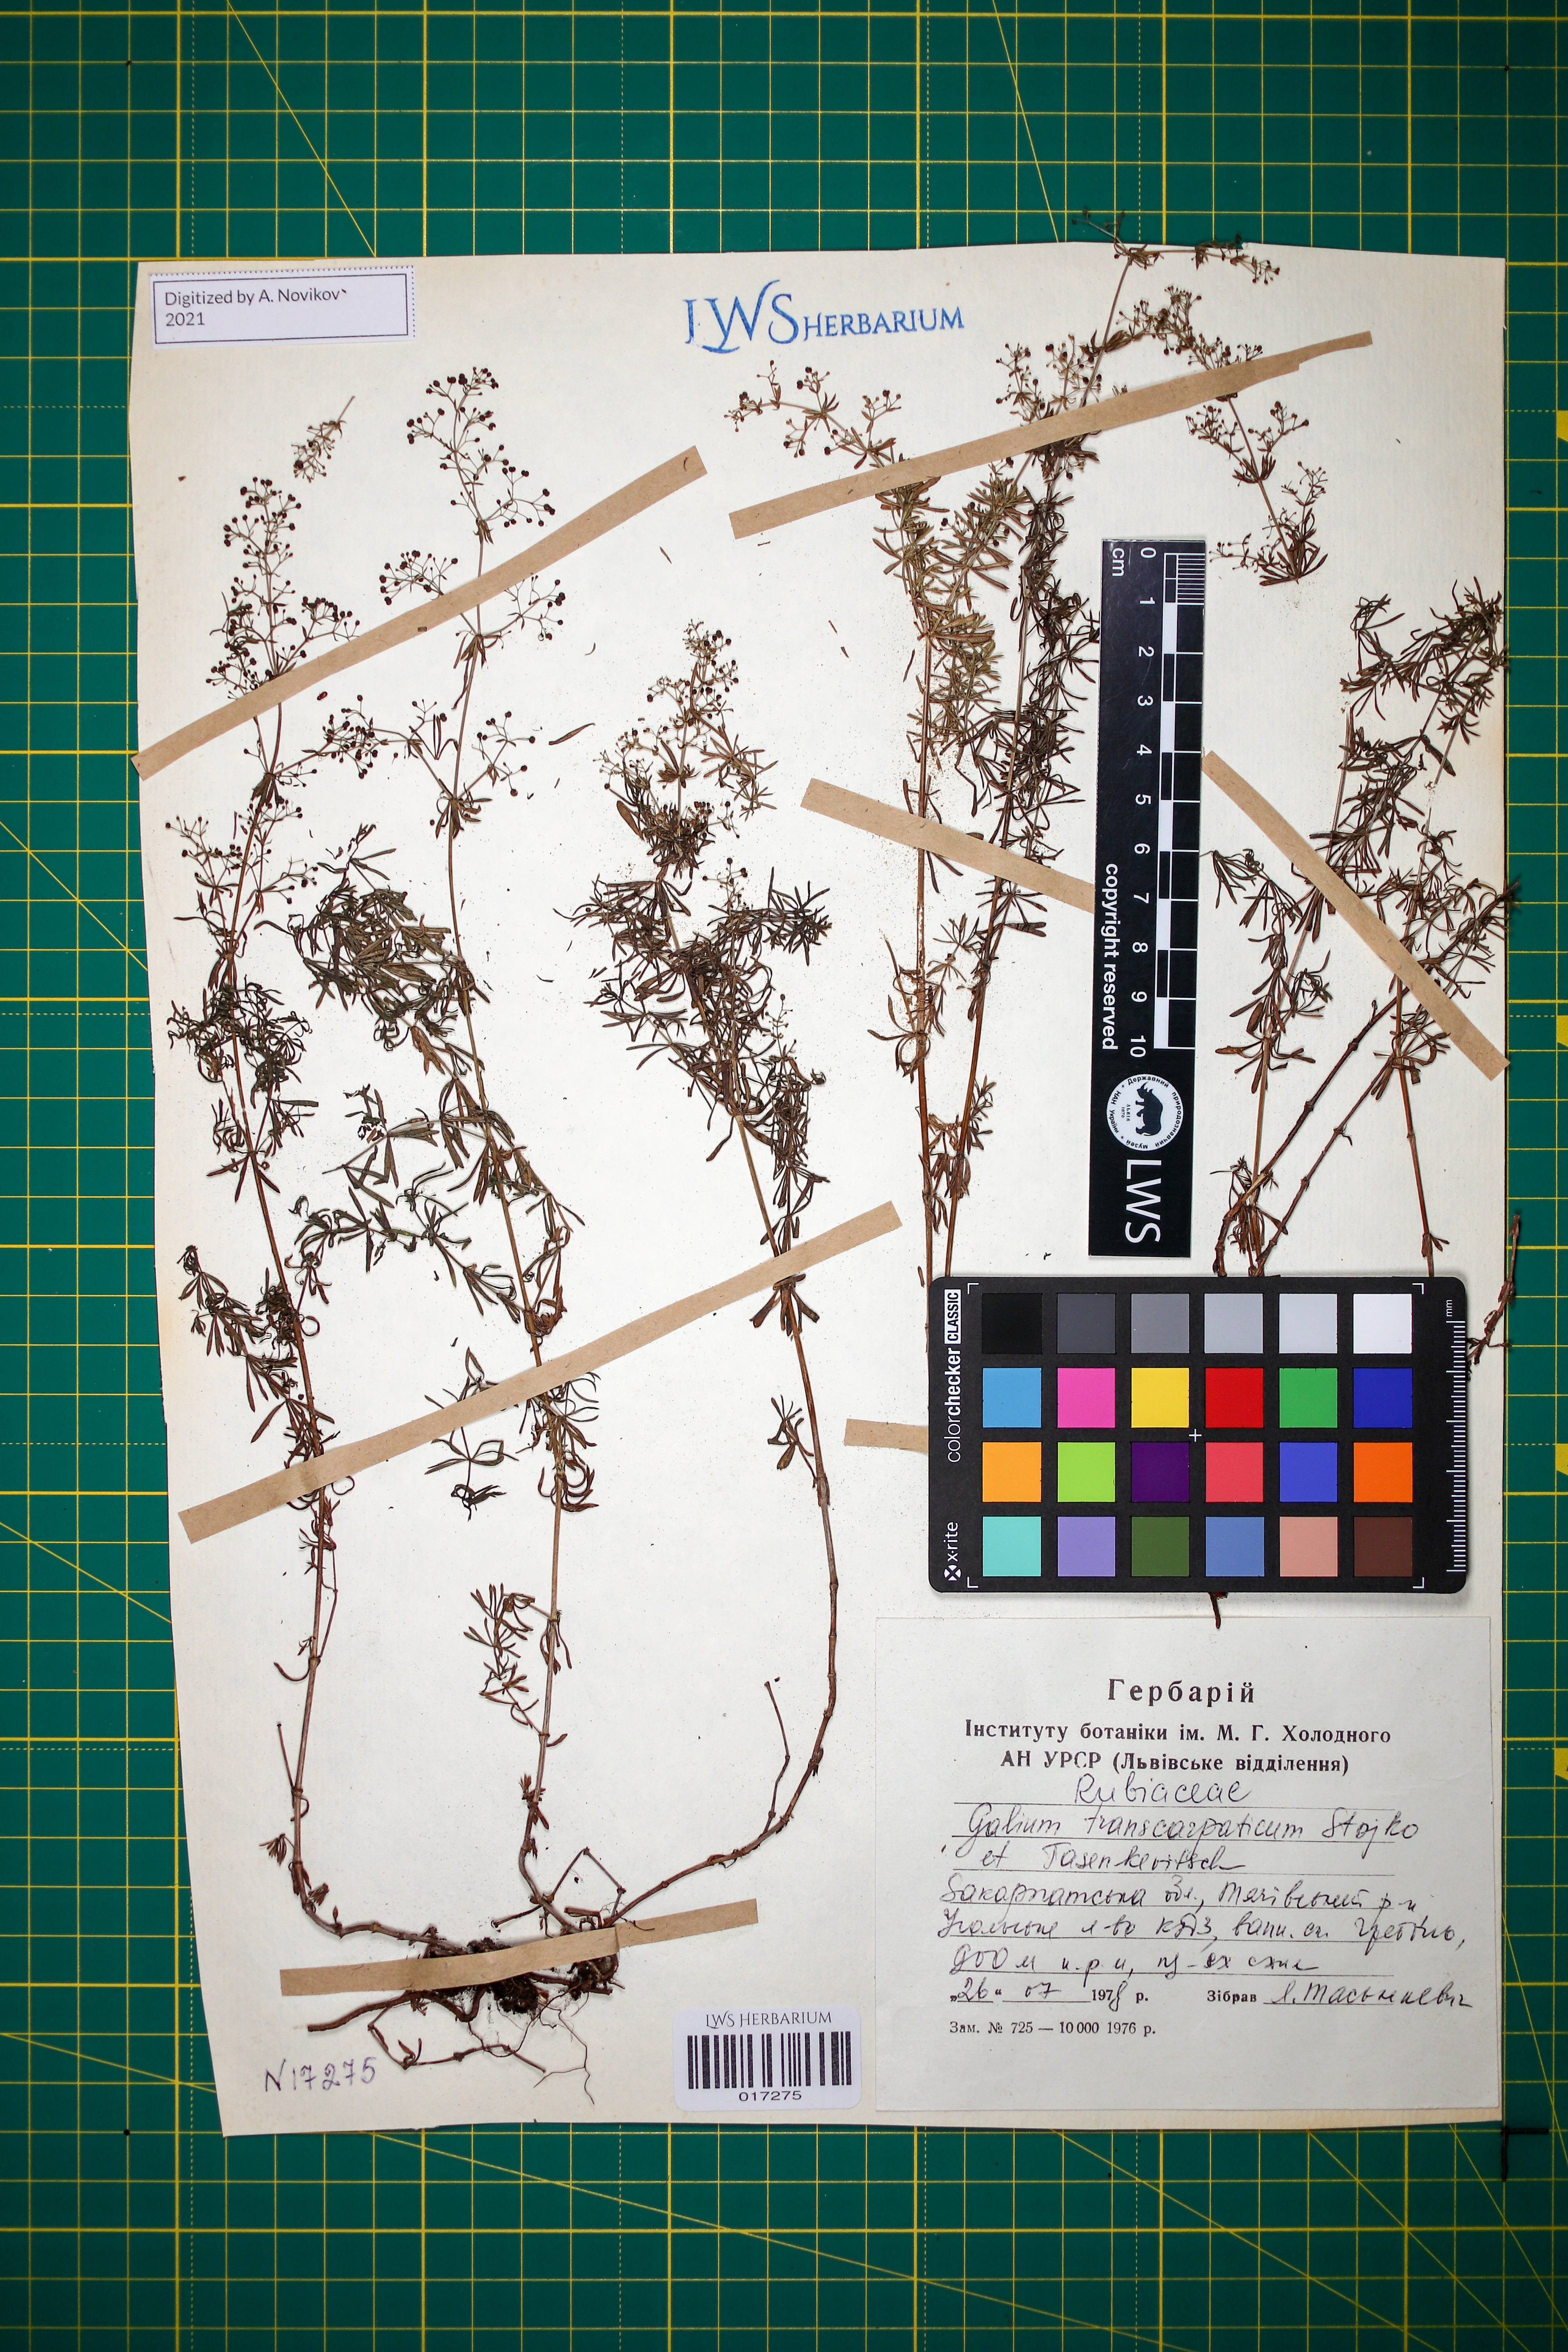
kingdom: Plantae
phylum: Tracheophyta
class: Magnoliopsida
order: Gentianales
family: Rubiaceae
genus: Galium
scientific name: Galium transcarpaticum
